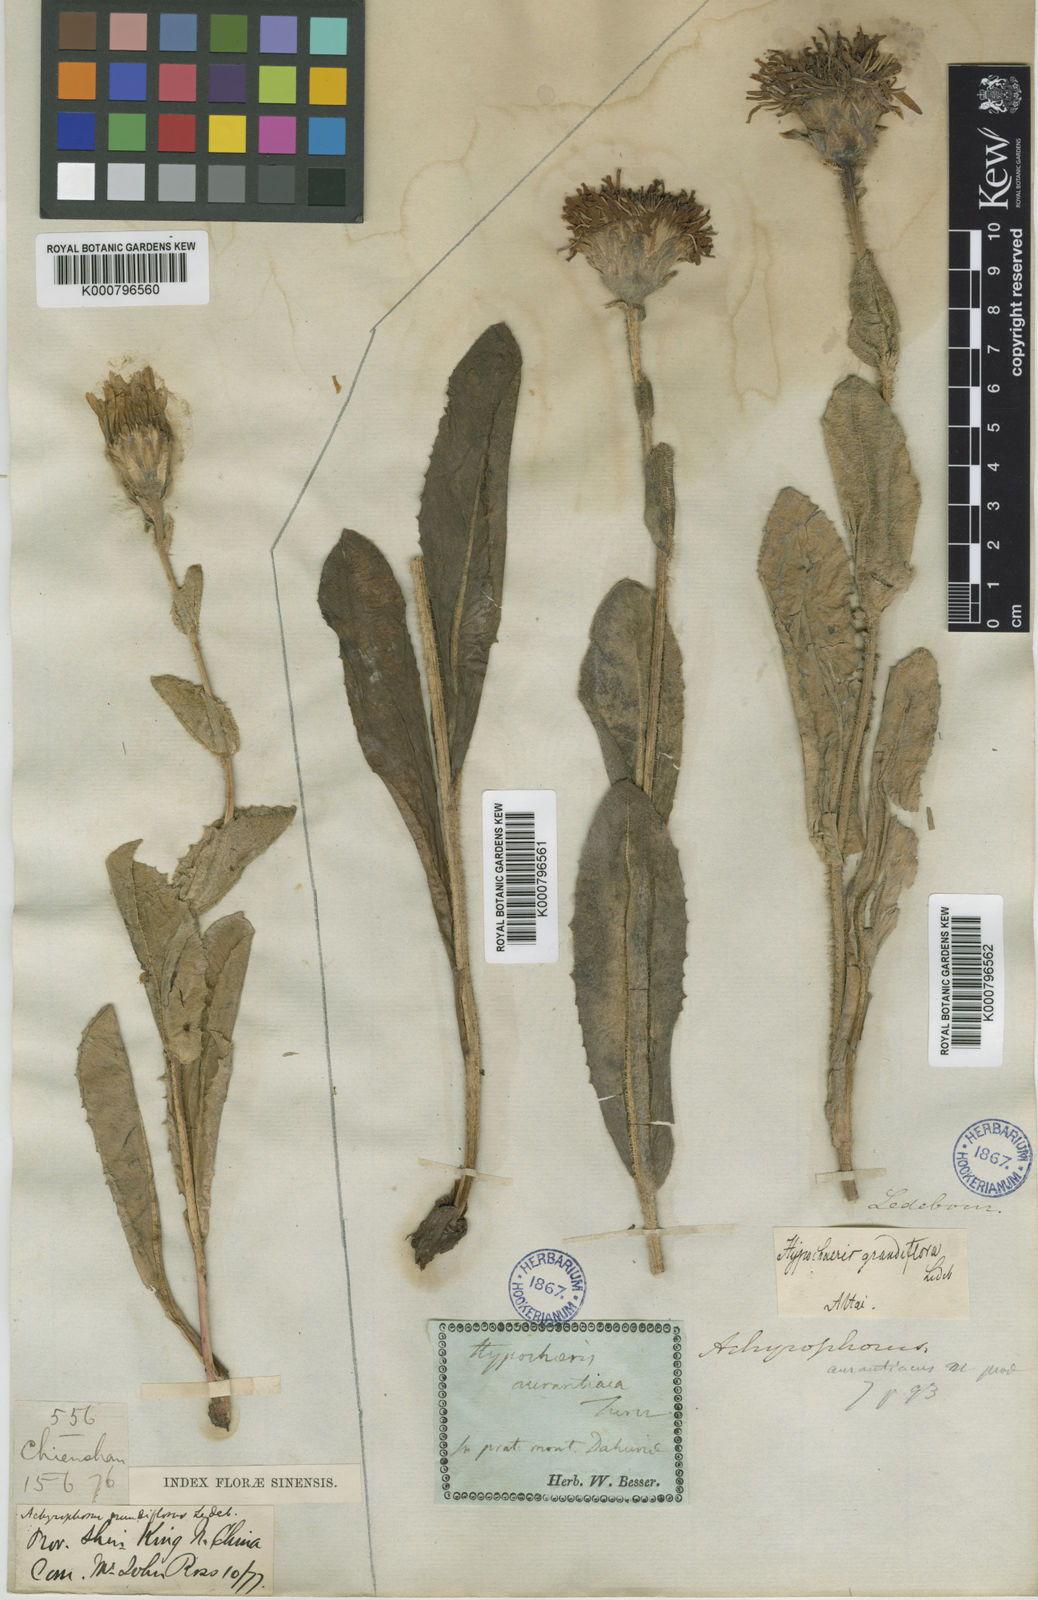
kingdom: Plantae
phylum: Tracheophyta
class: Magnoliopsida
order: Asterales
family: Asteraceae
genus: Trommsdorffia
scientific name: Trommsdorffia ciliata
